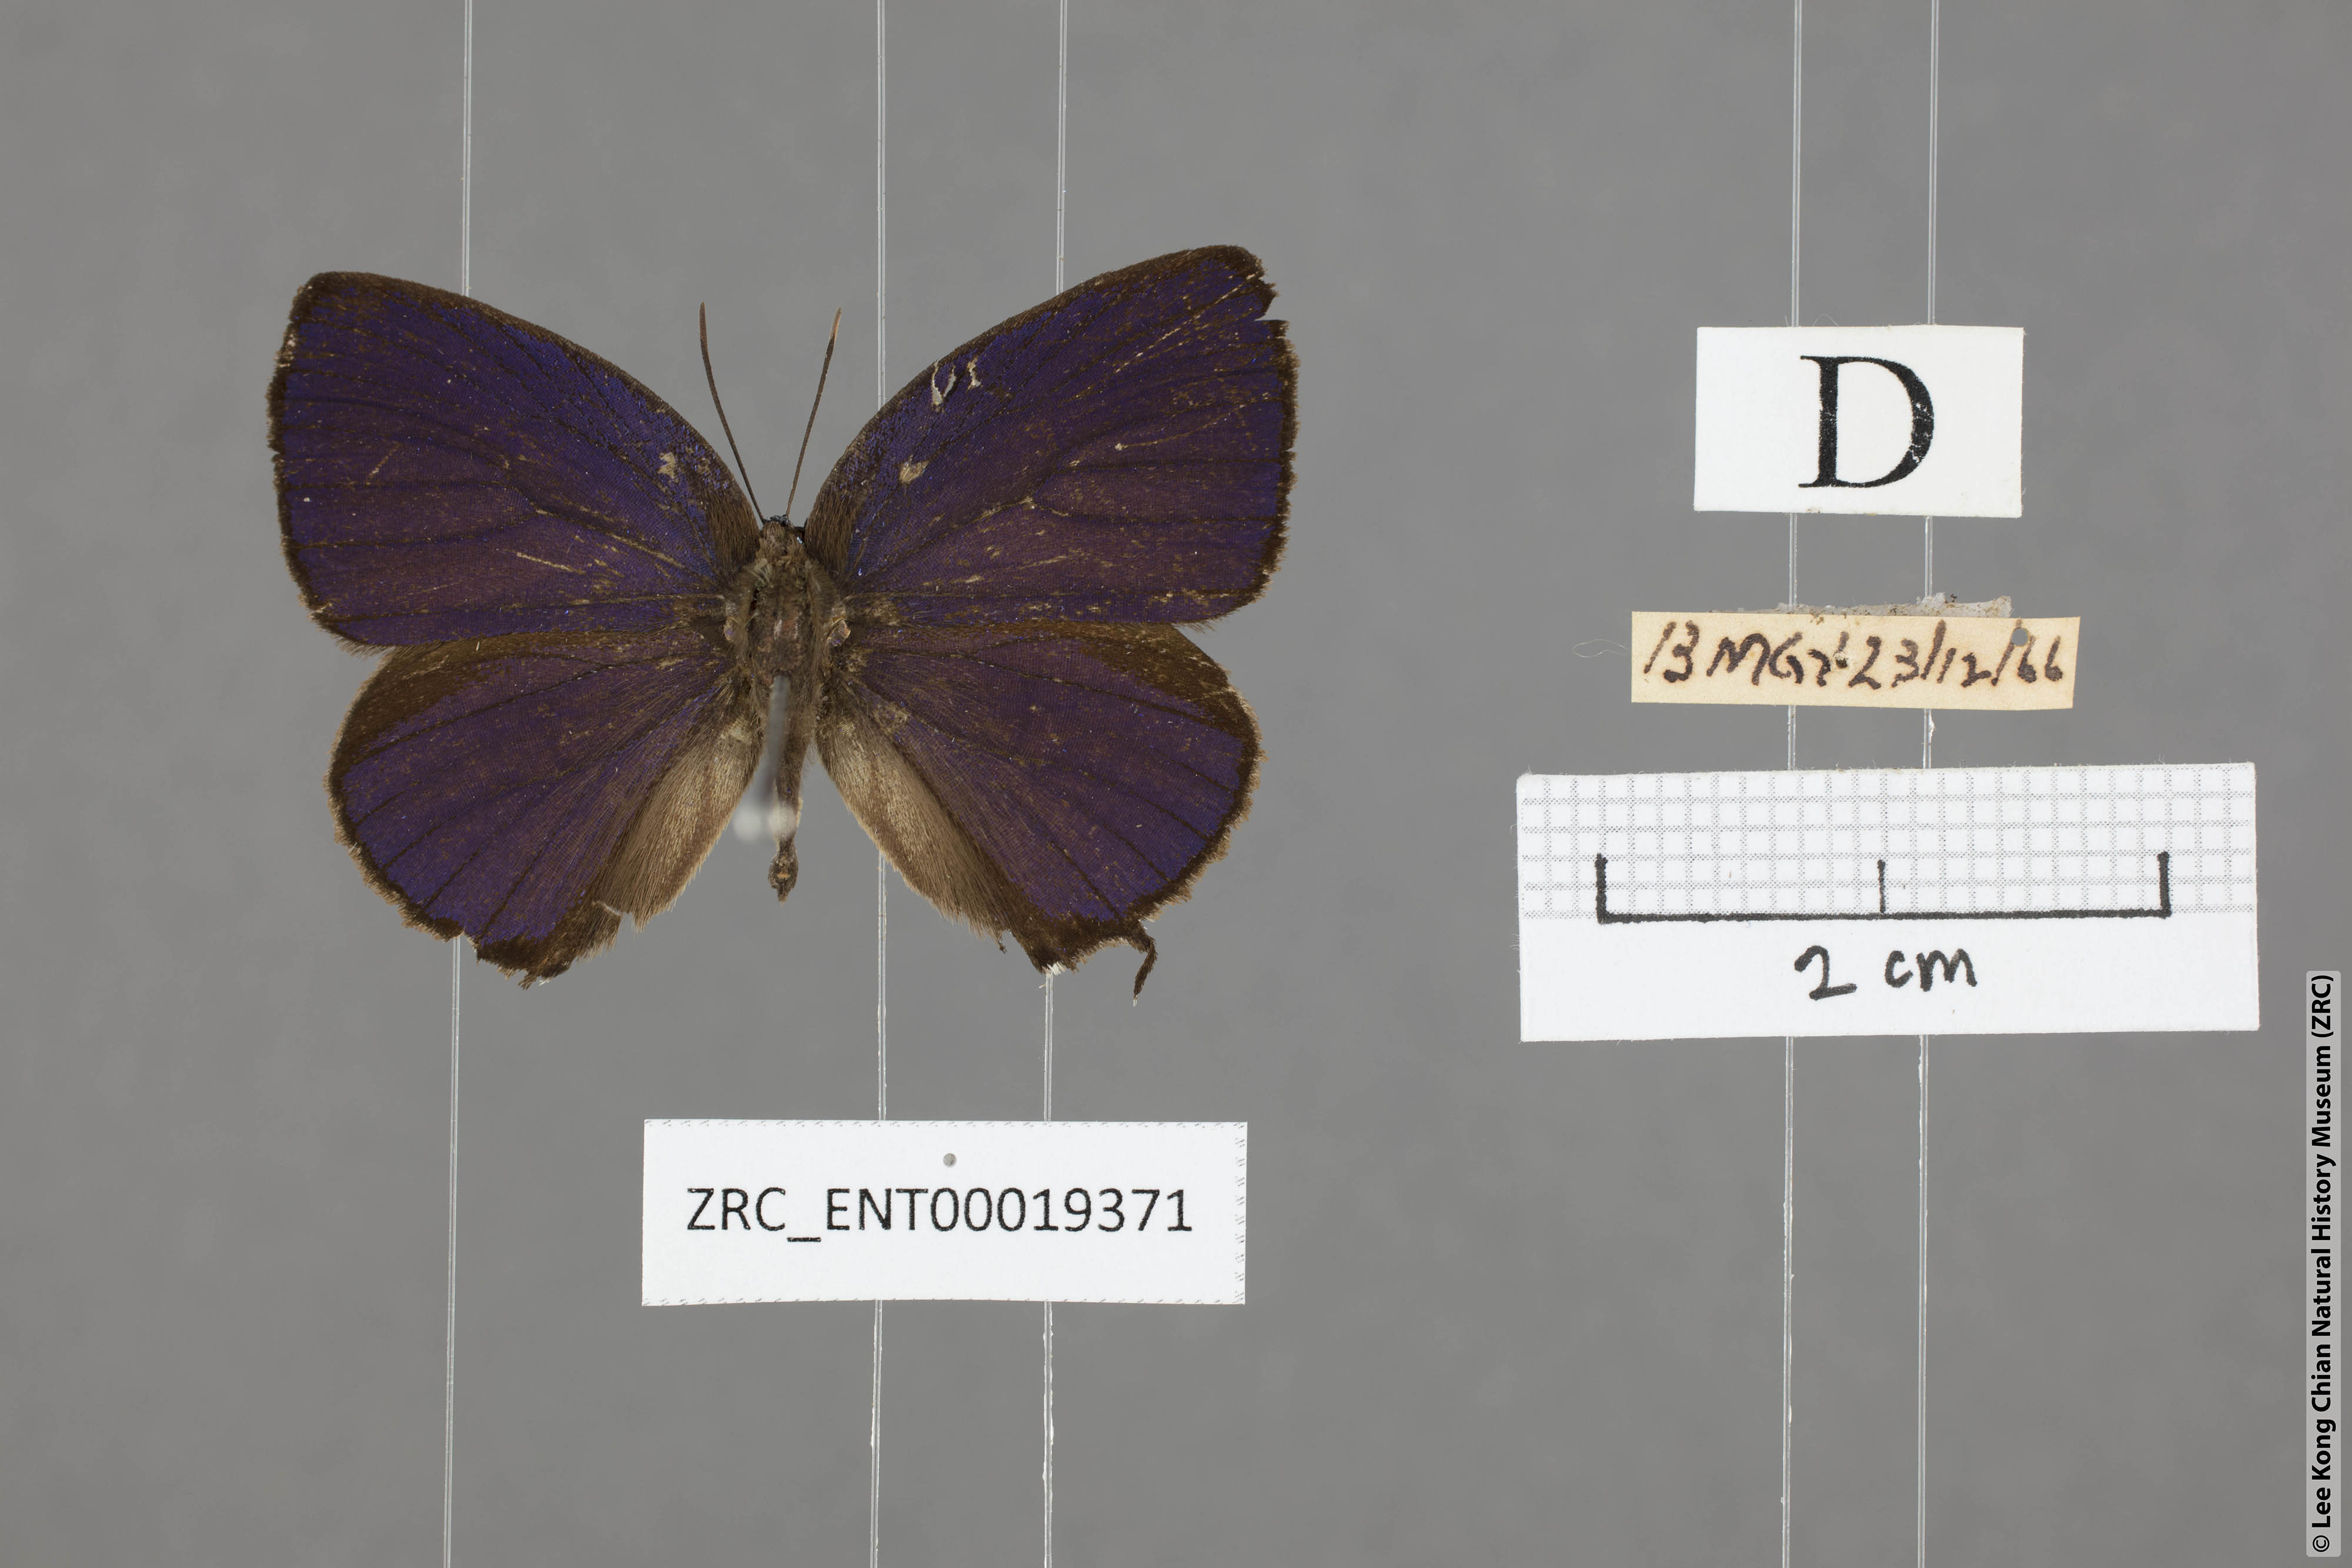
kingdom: Animalia
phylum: Arthropoda
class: Insecta
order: Lepidoptera
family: Lycaenidae
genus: Arhopala
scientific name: Arhopala delta
